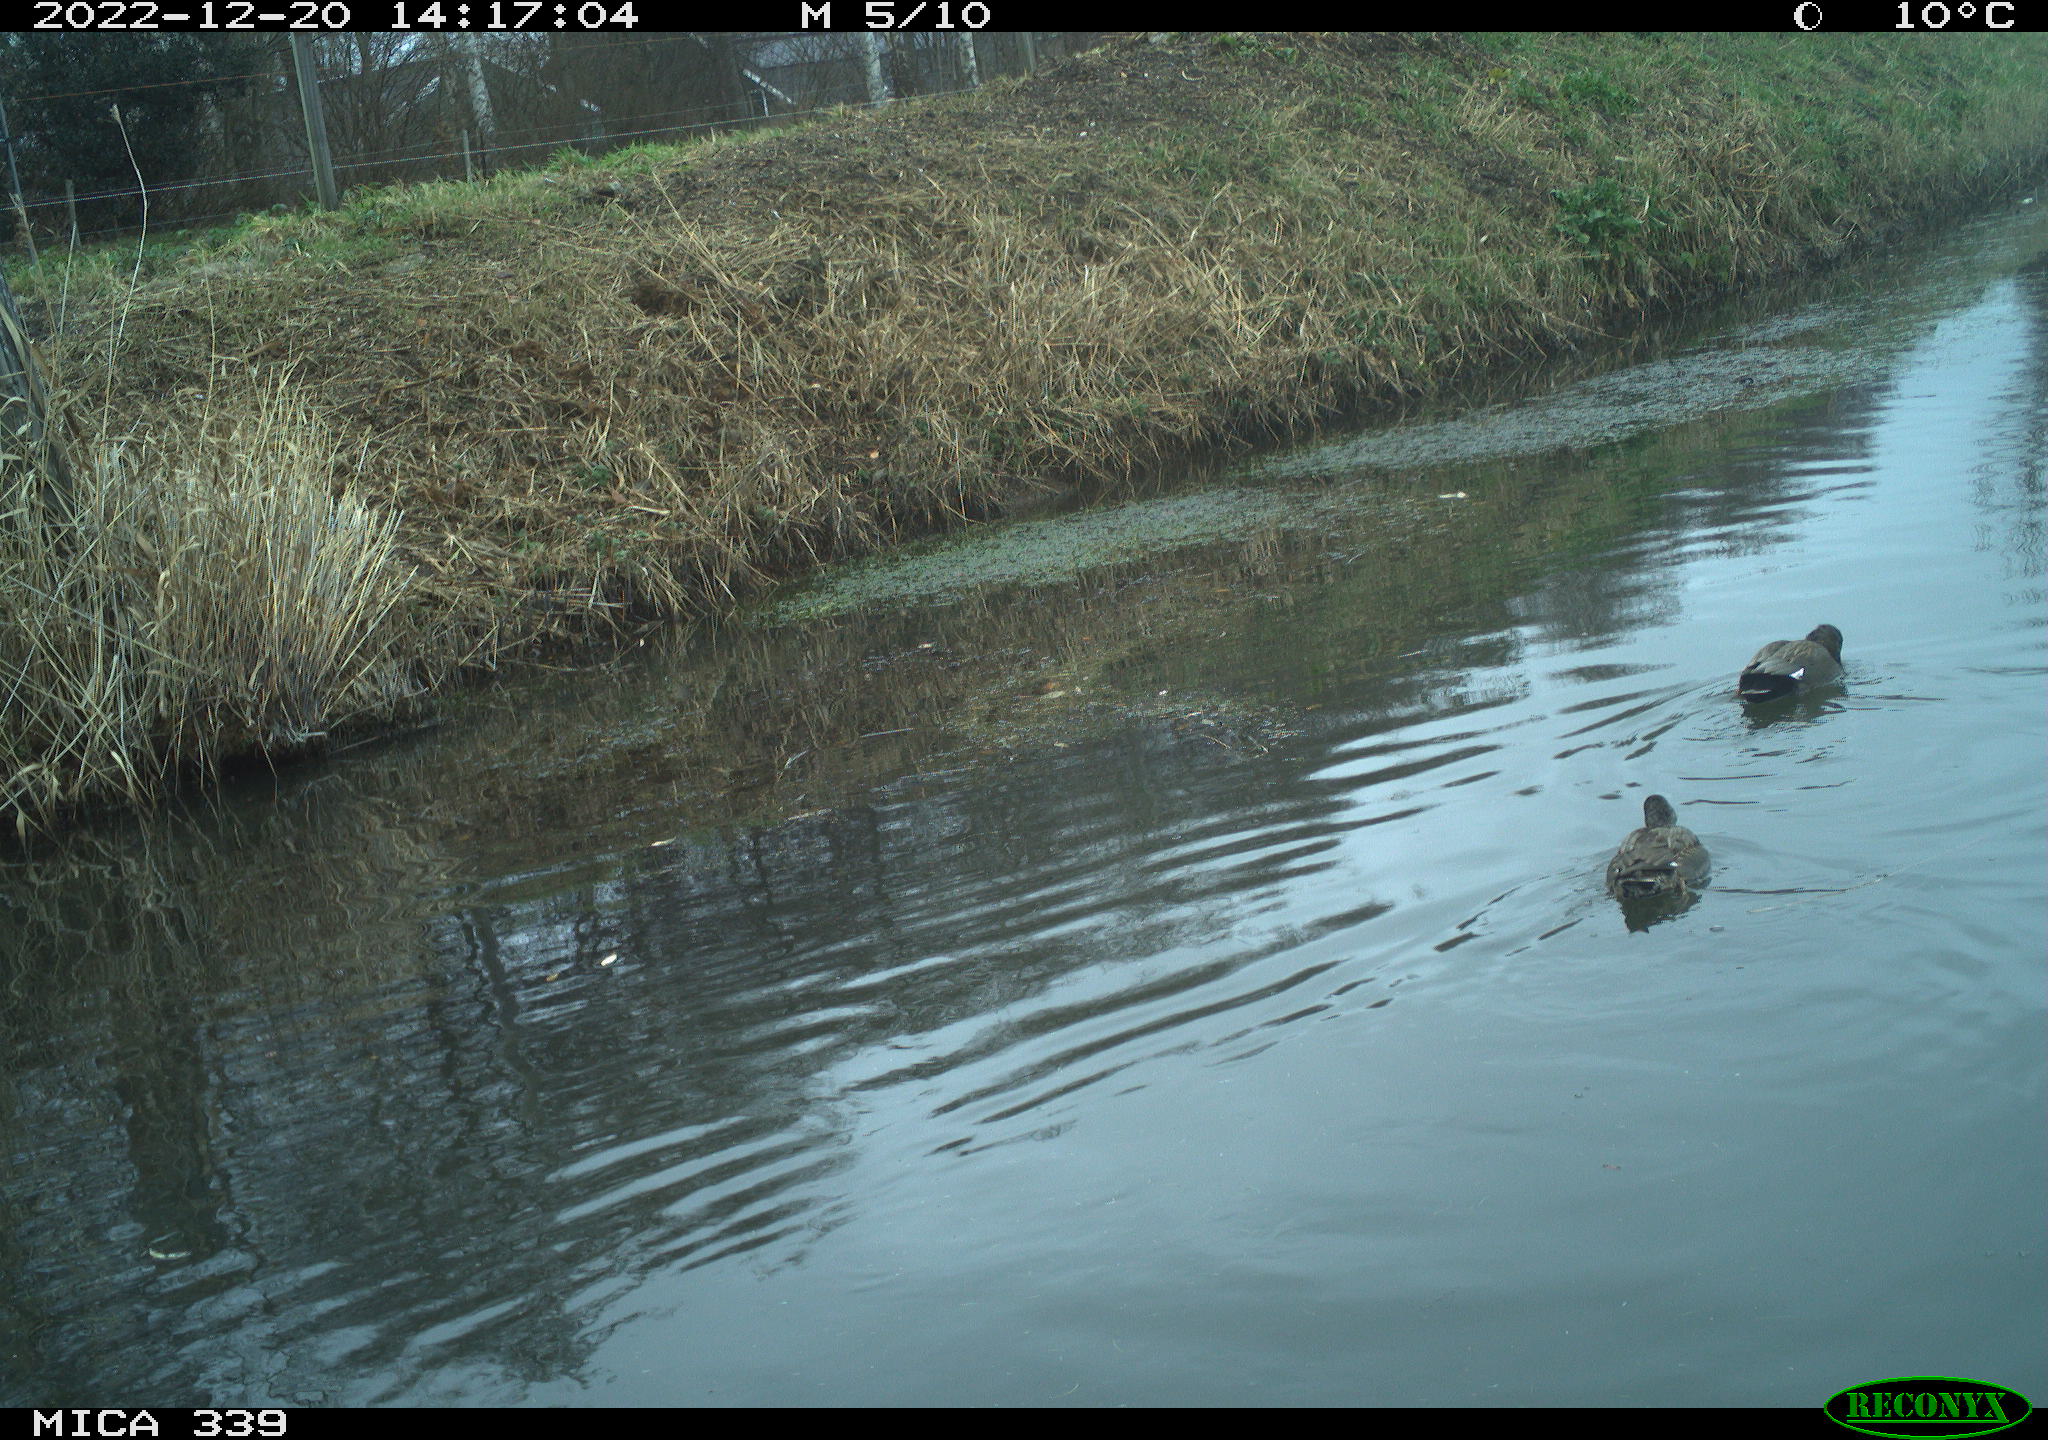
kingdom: Animalia
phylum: Chordata
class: Aves
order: Anseriformes
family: Anatidae
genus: Anas
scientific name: Anas
